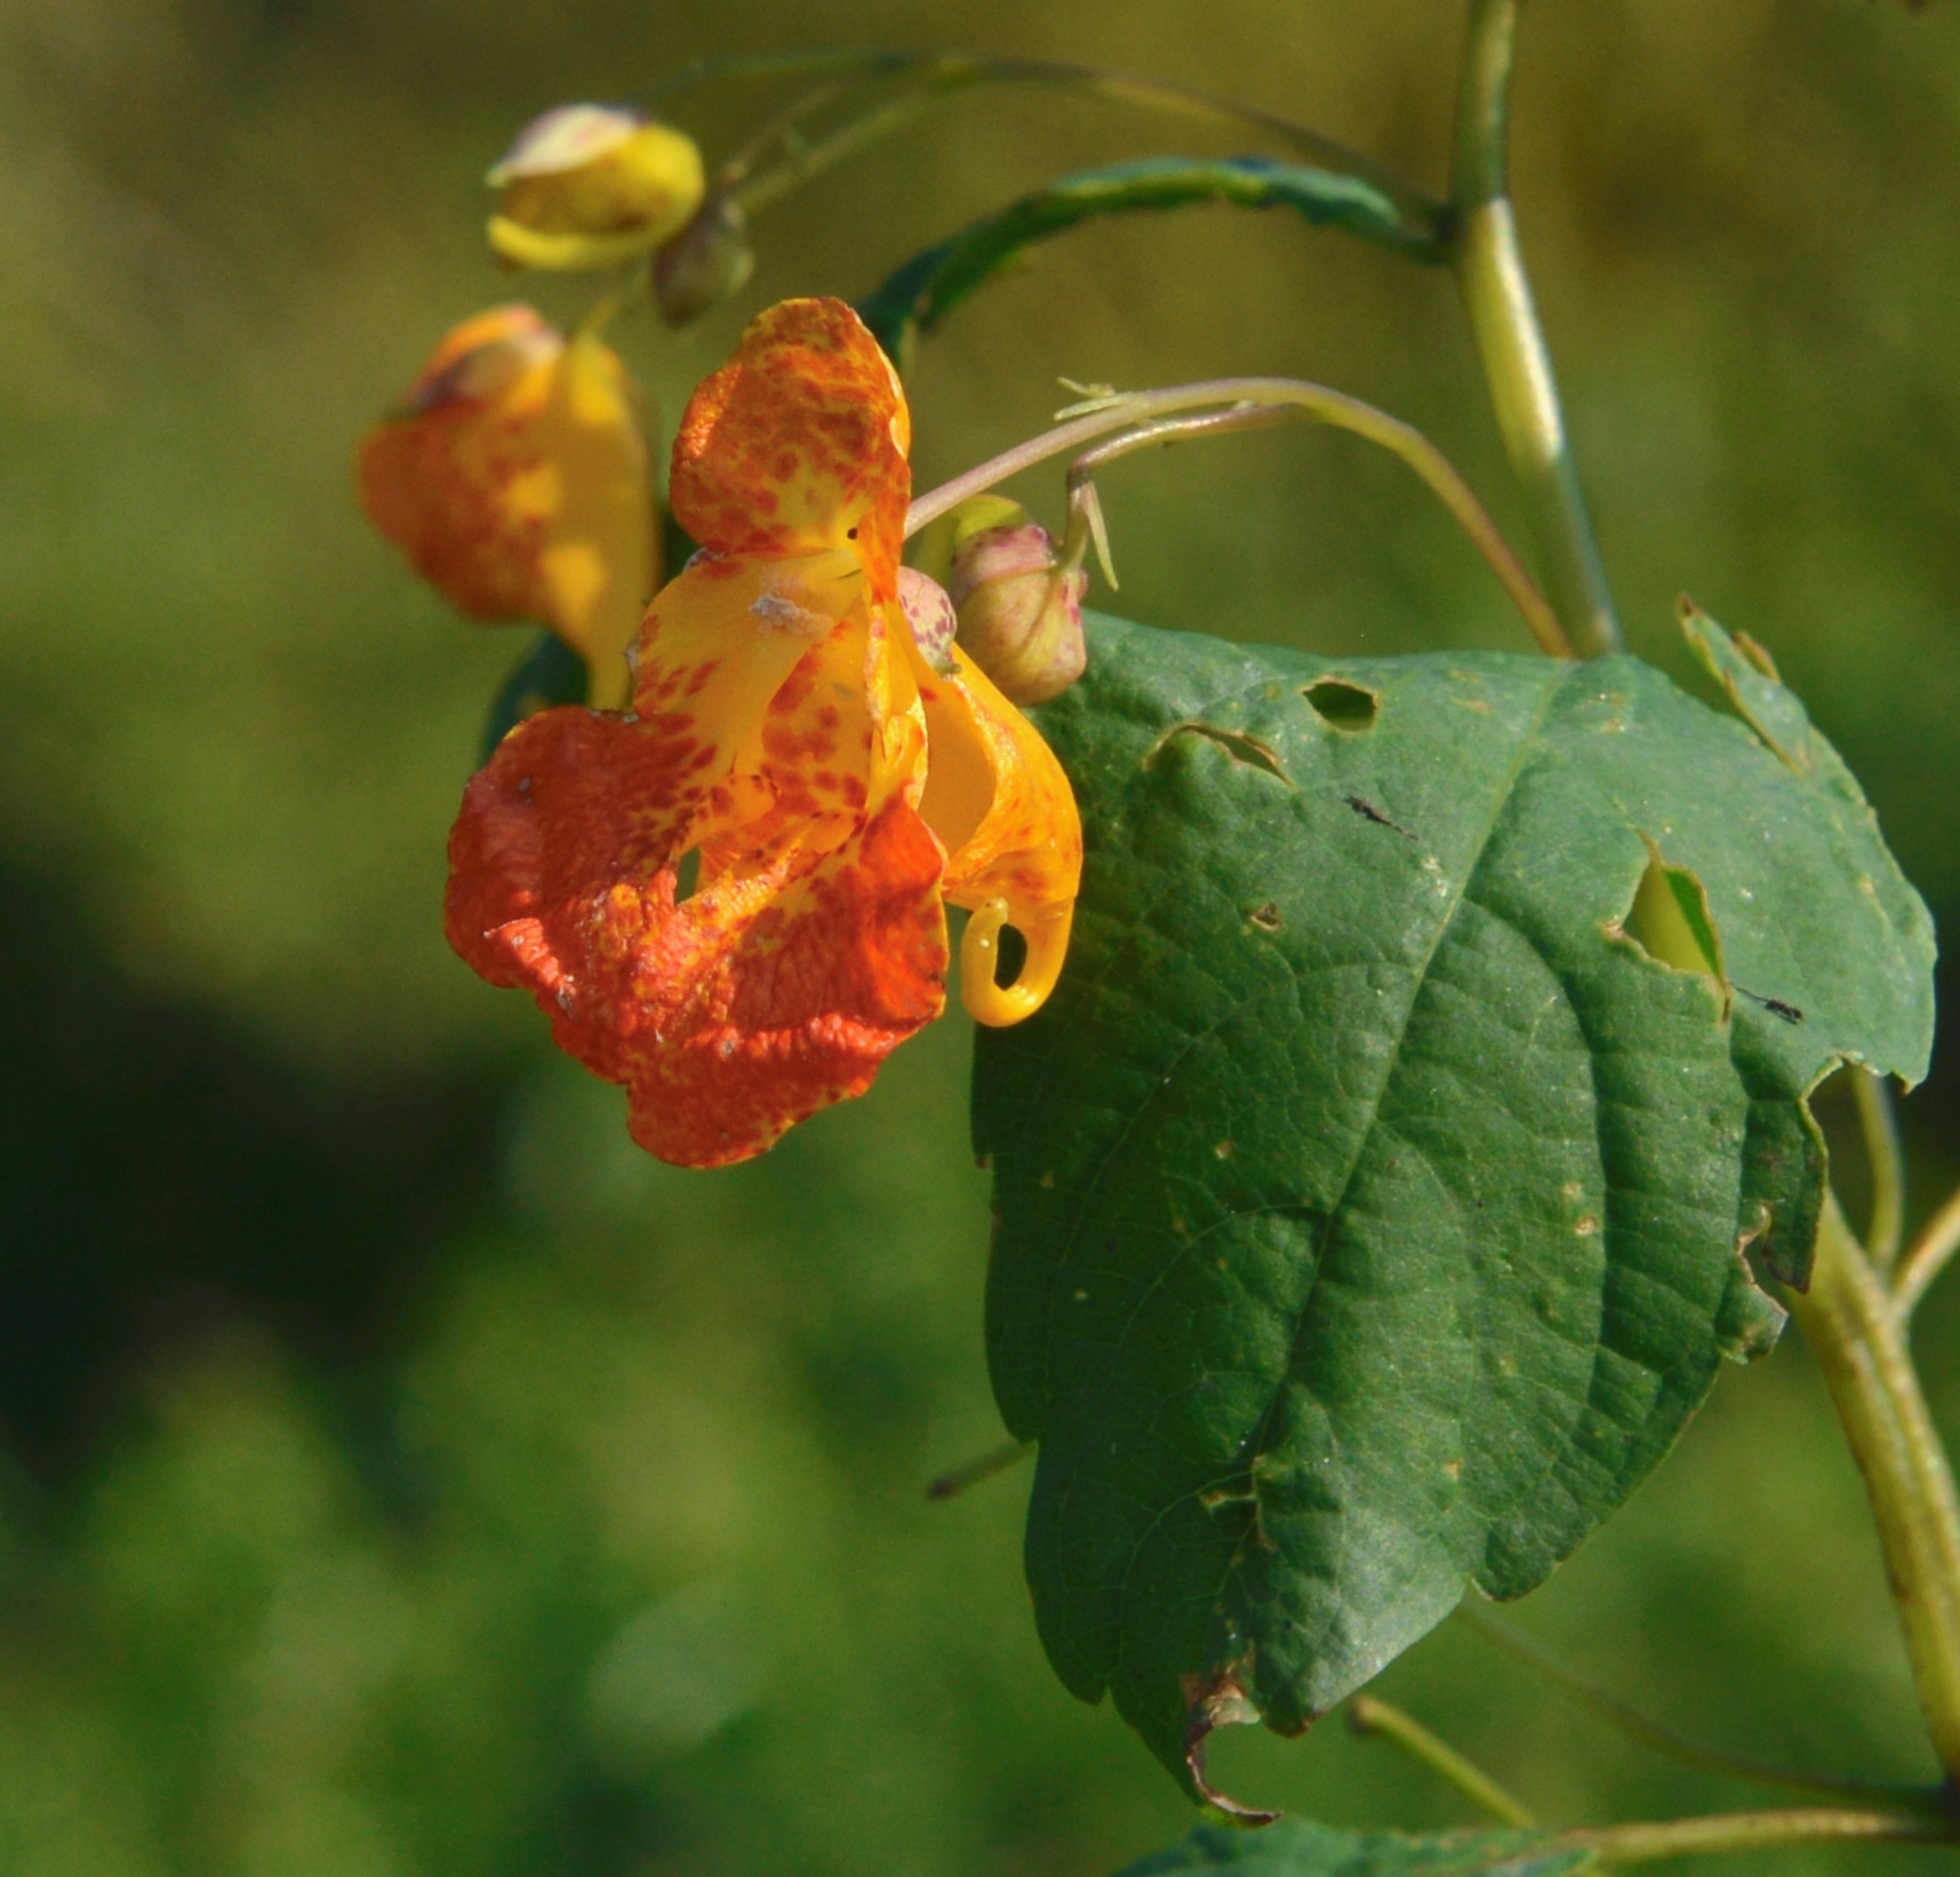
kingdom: Plantae
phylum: Tracheophyta
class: Magnoliopsida
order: Ericales
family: Balsaminaceae
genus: Impatiens
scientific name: Impatiens capensis
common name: Orange-balsamin
